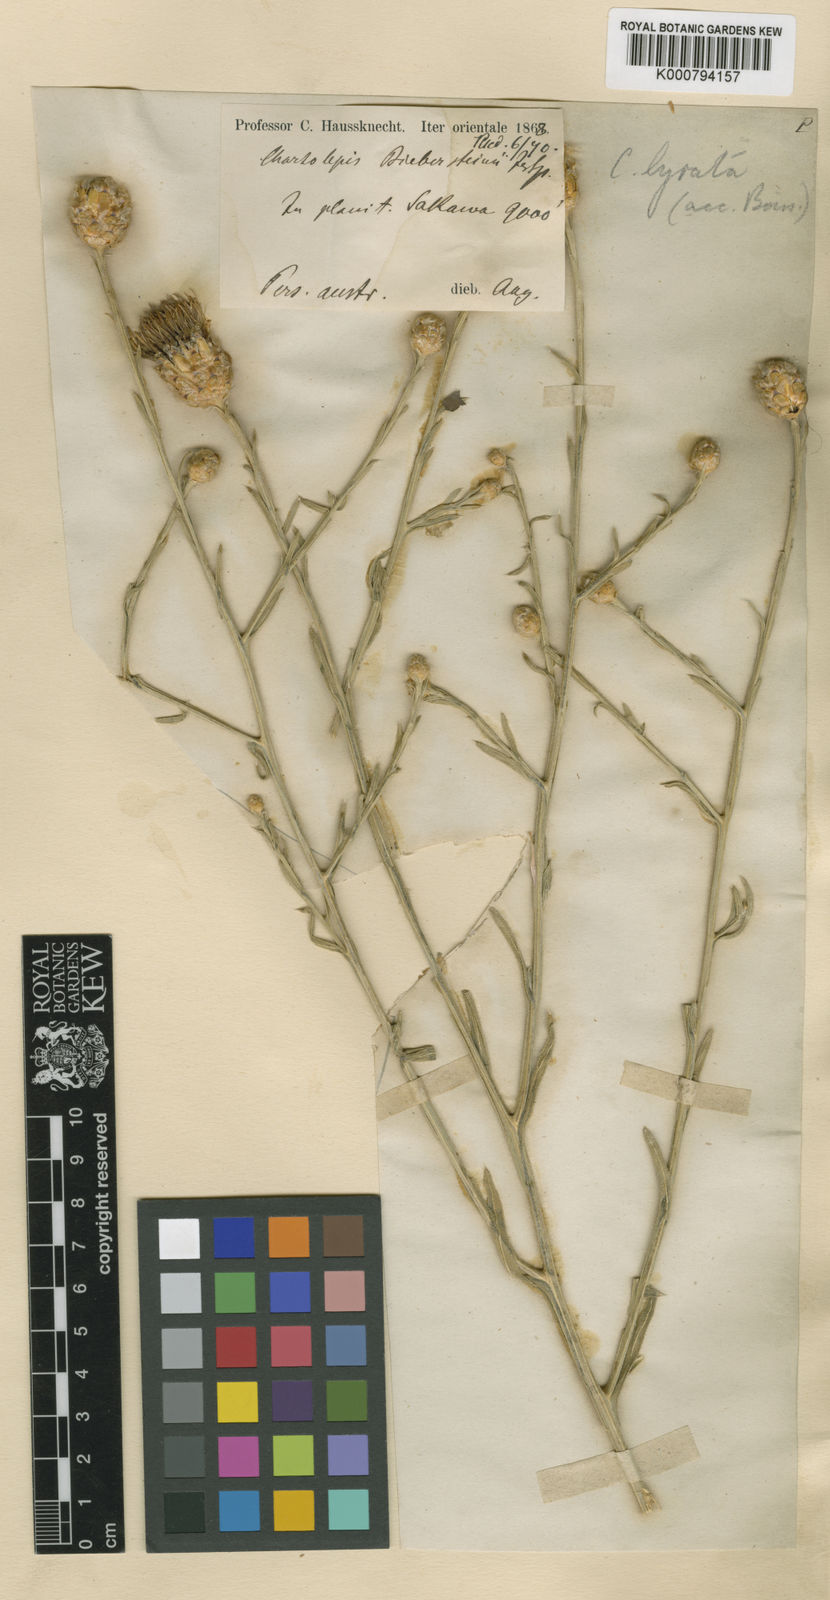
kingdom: Plantae
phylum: Tracheophyta
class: Magnoliopsida
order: Asterales
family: Asteraceae
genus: Centaurea
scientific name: Centaurea
